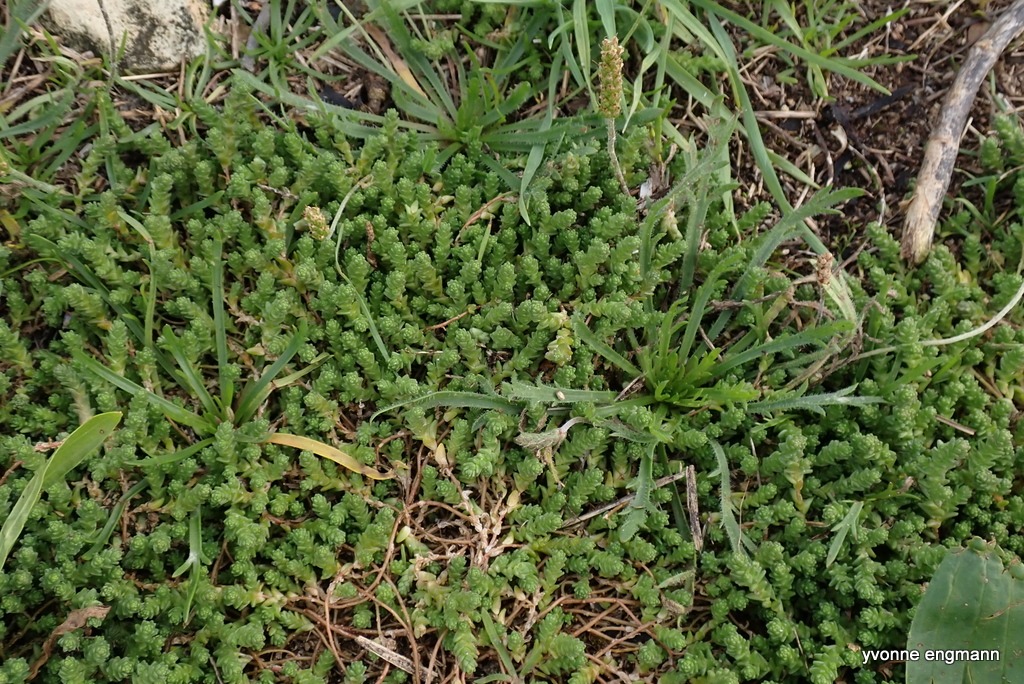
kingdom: Plantae
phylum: Tracheophyta
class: Magnoliopsida
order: Saxifragales
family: Crassulaceae
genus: Sedum
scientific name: Sedum acre
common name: Bidende stenurt
